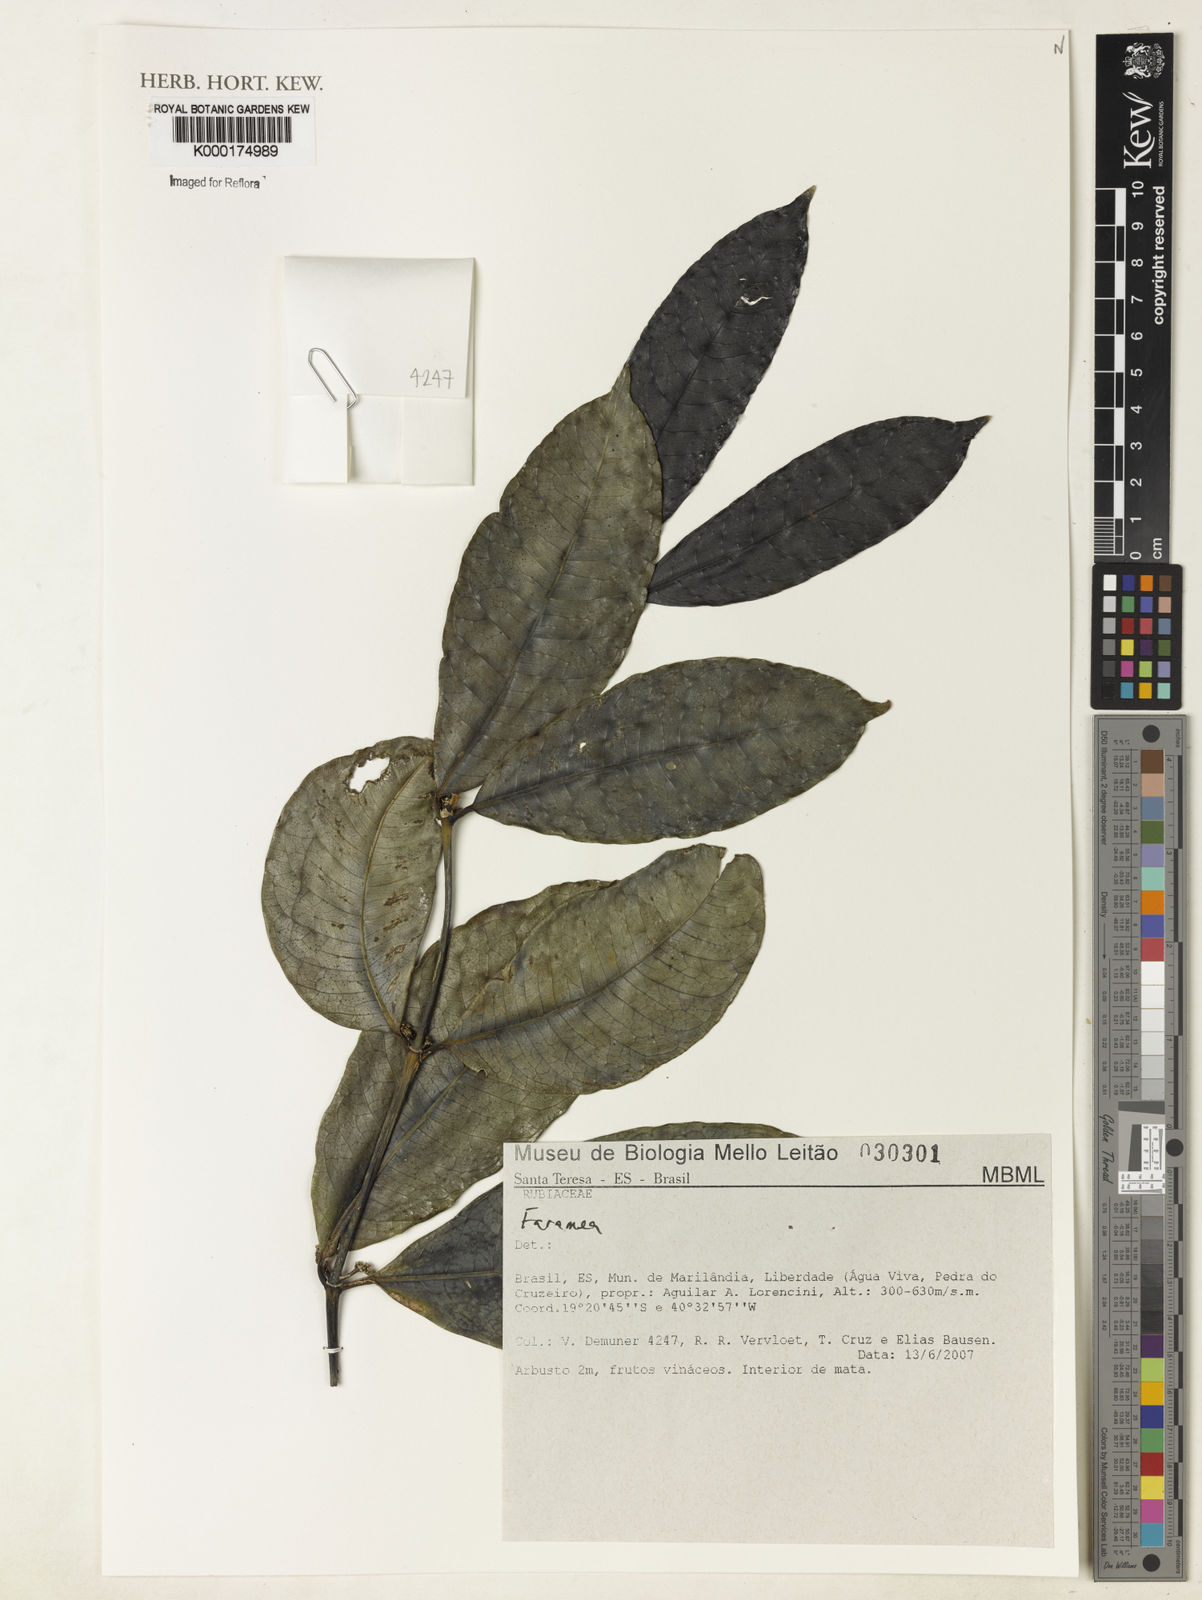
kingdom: Plantae
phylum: Tracheophyta
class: Magnoliopsida
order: Gentianales
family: Rubiaceae
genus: Faramea
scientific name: Faramea
